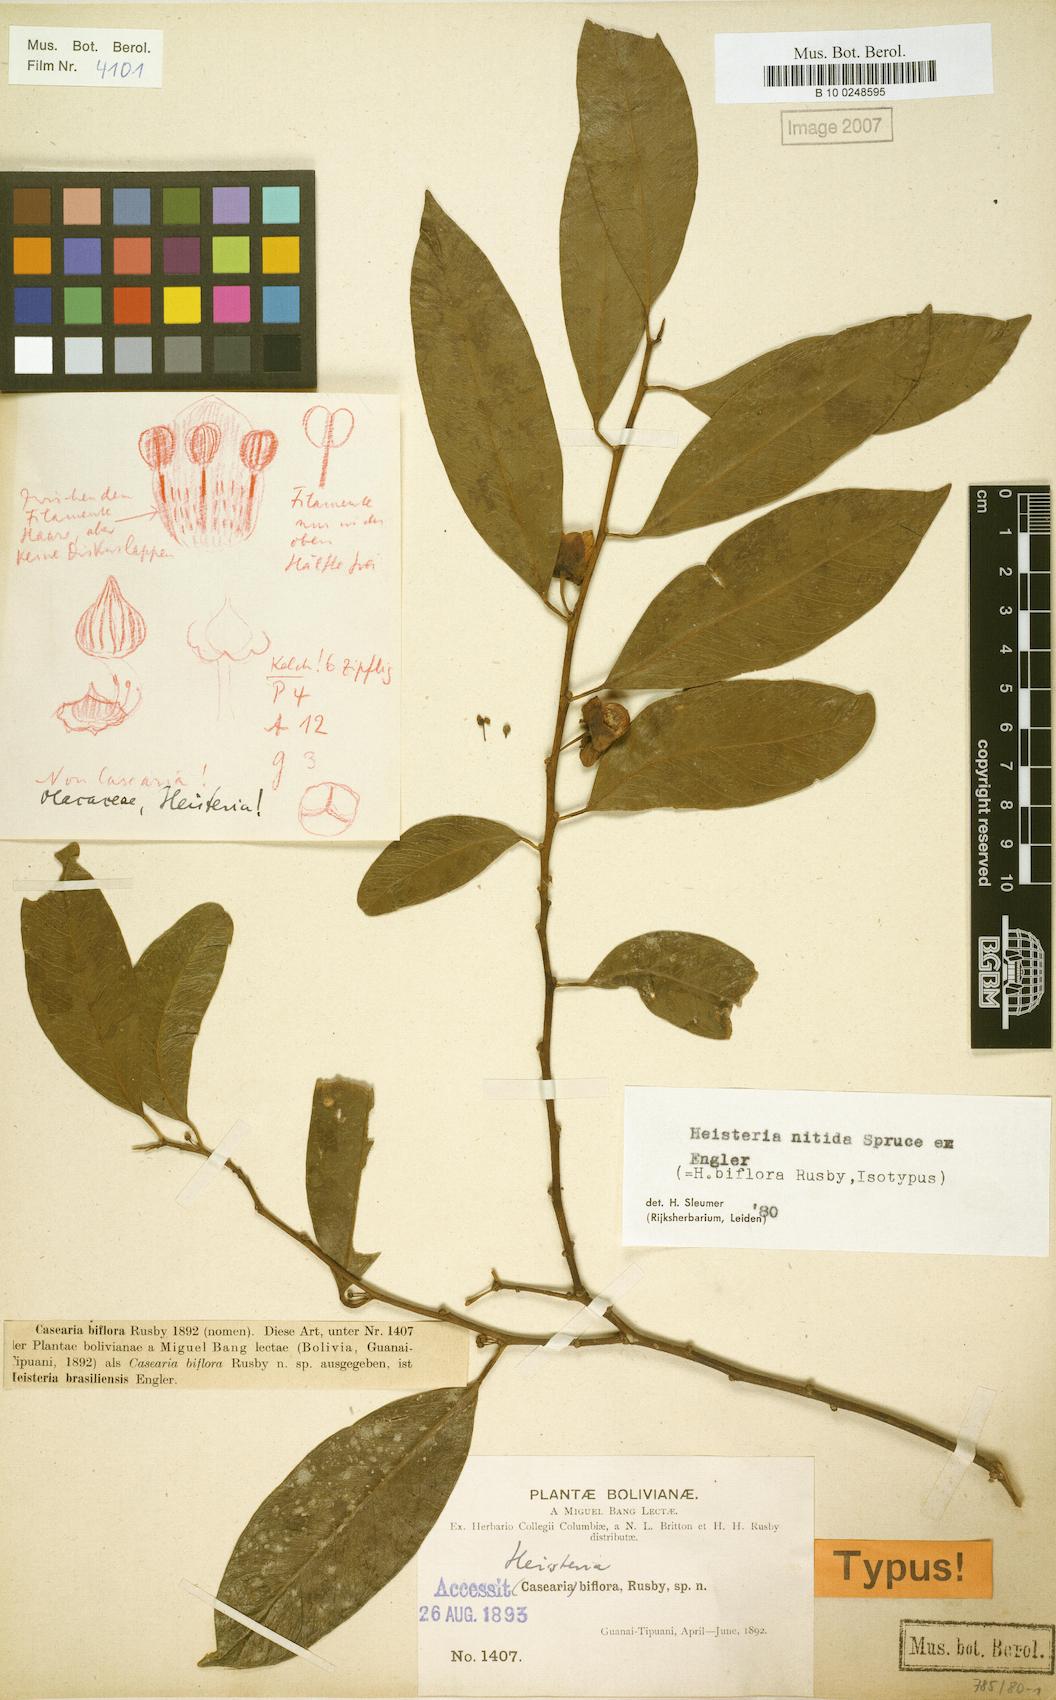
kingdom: Plantae
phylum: Tracheophyta
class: Magnoliopsida
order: Santalales
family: Erythropalaceae
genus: Heisteria
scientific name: Heisteria nitida
